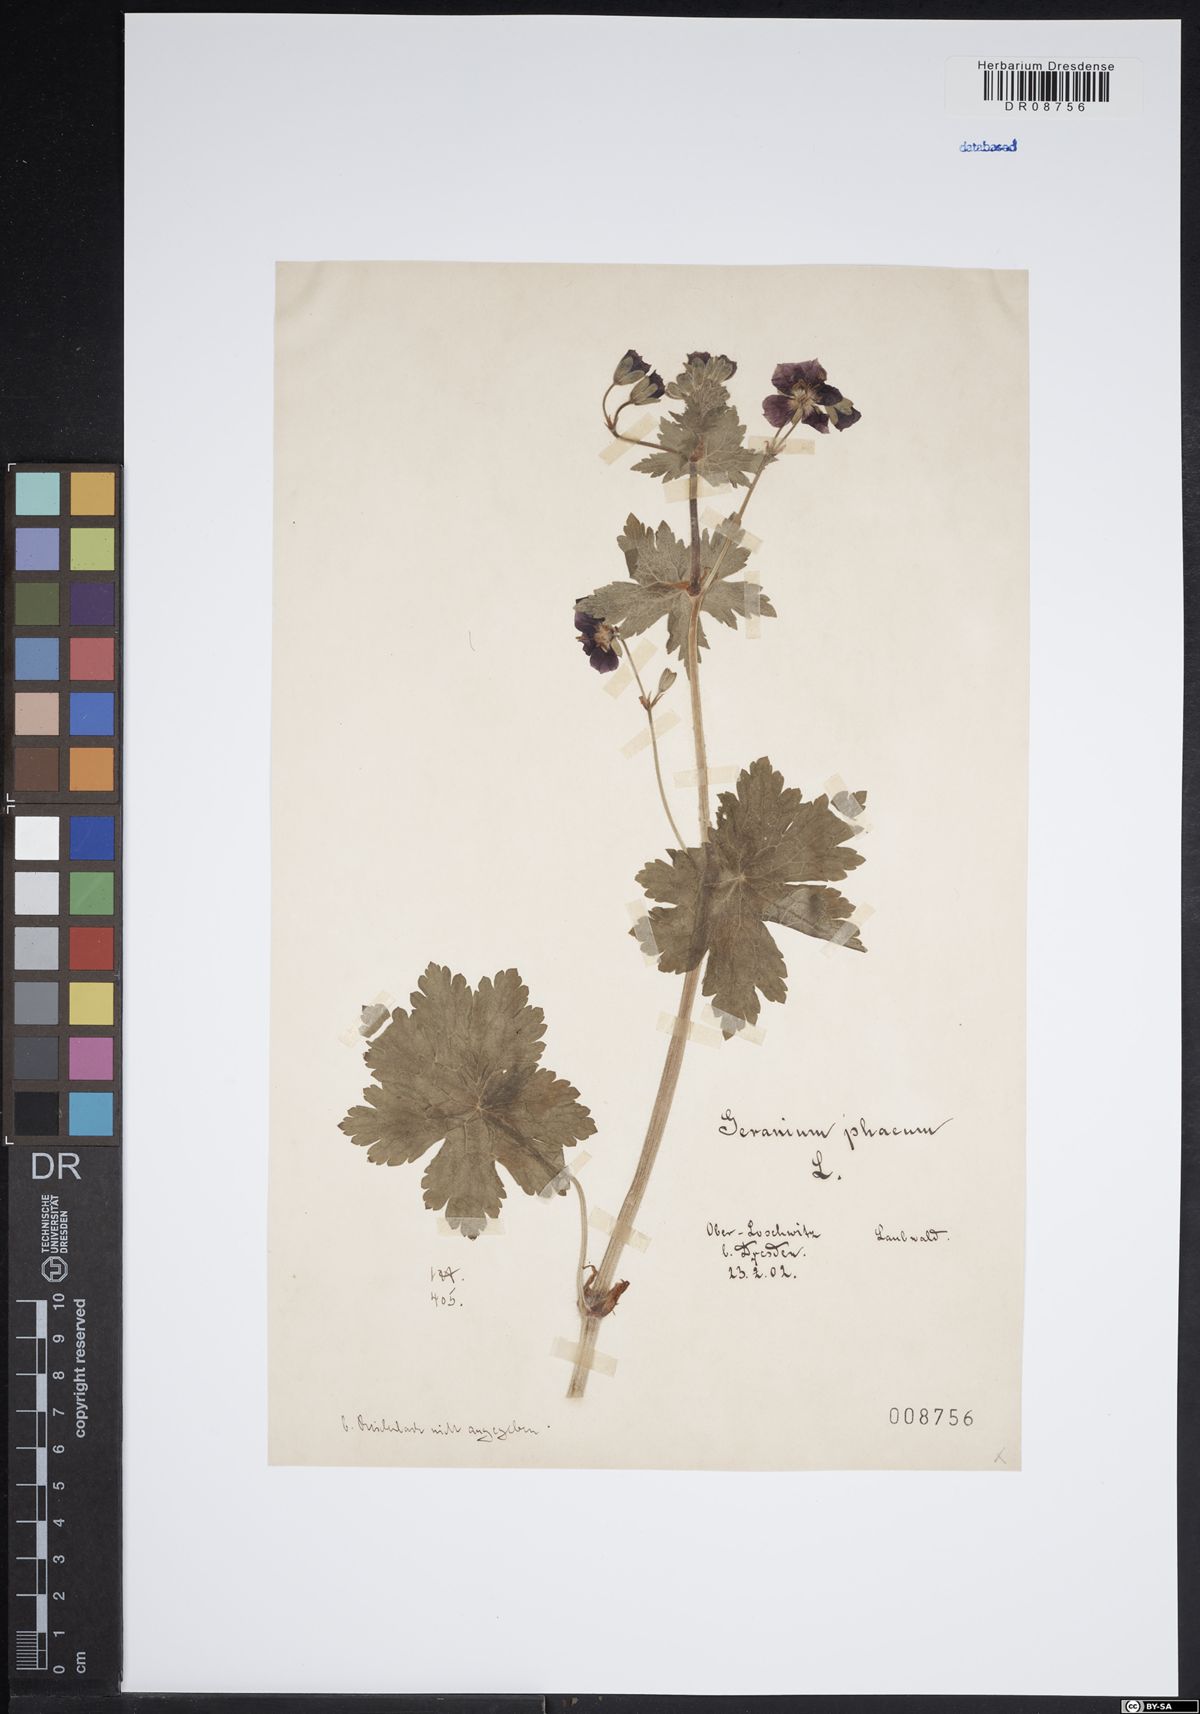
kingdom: Plantae
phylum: Tracheophyta
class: Magnoliopsida
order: Geraniales
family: Geraniaceae
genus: Geranium
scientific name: Geranium phaeum
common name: Dusky crane's-bill
